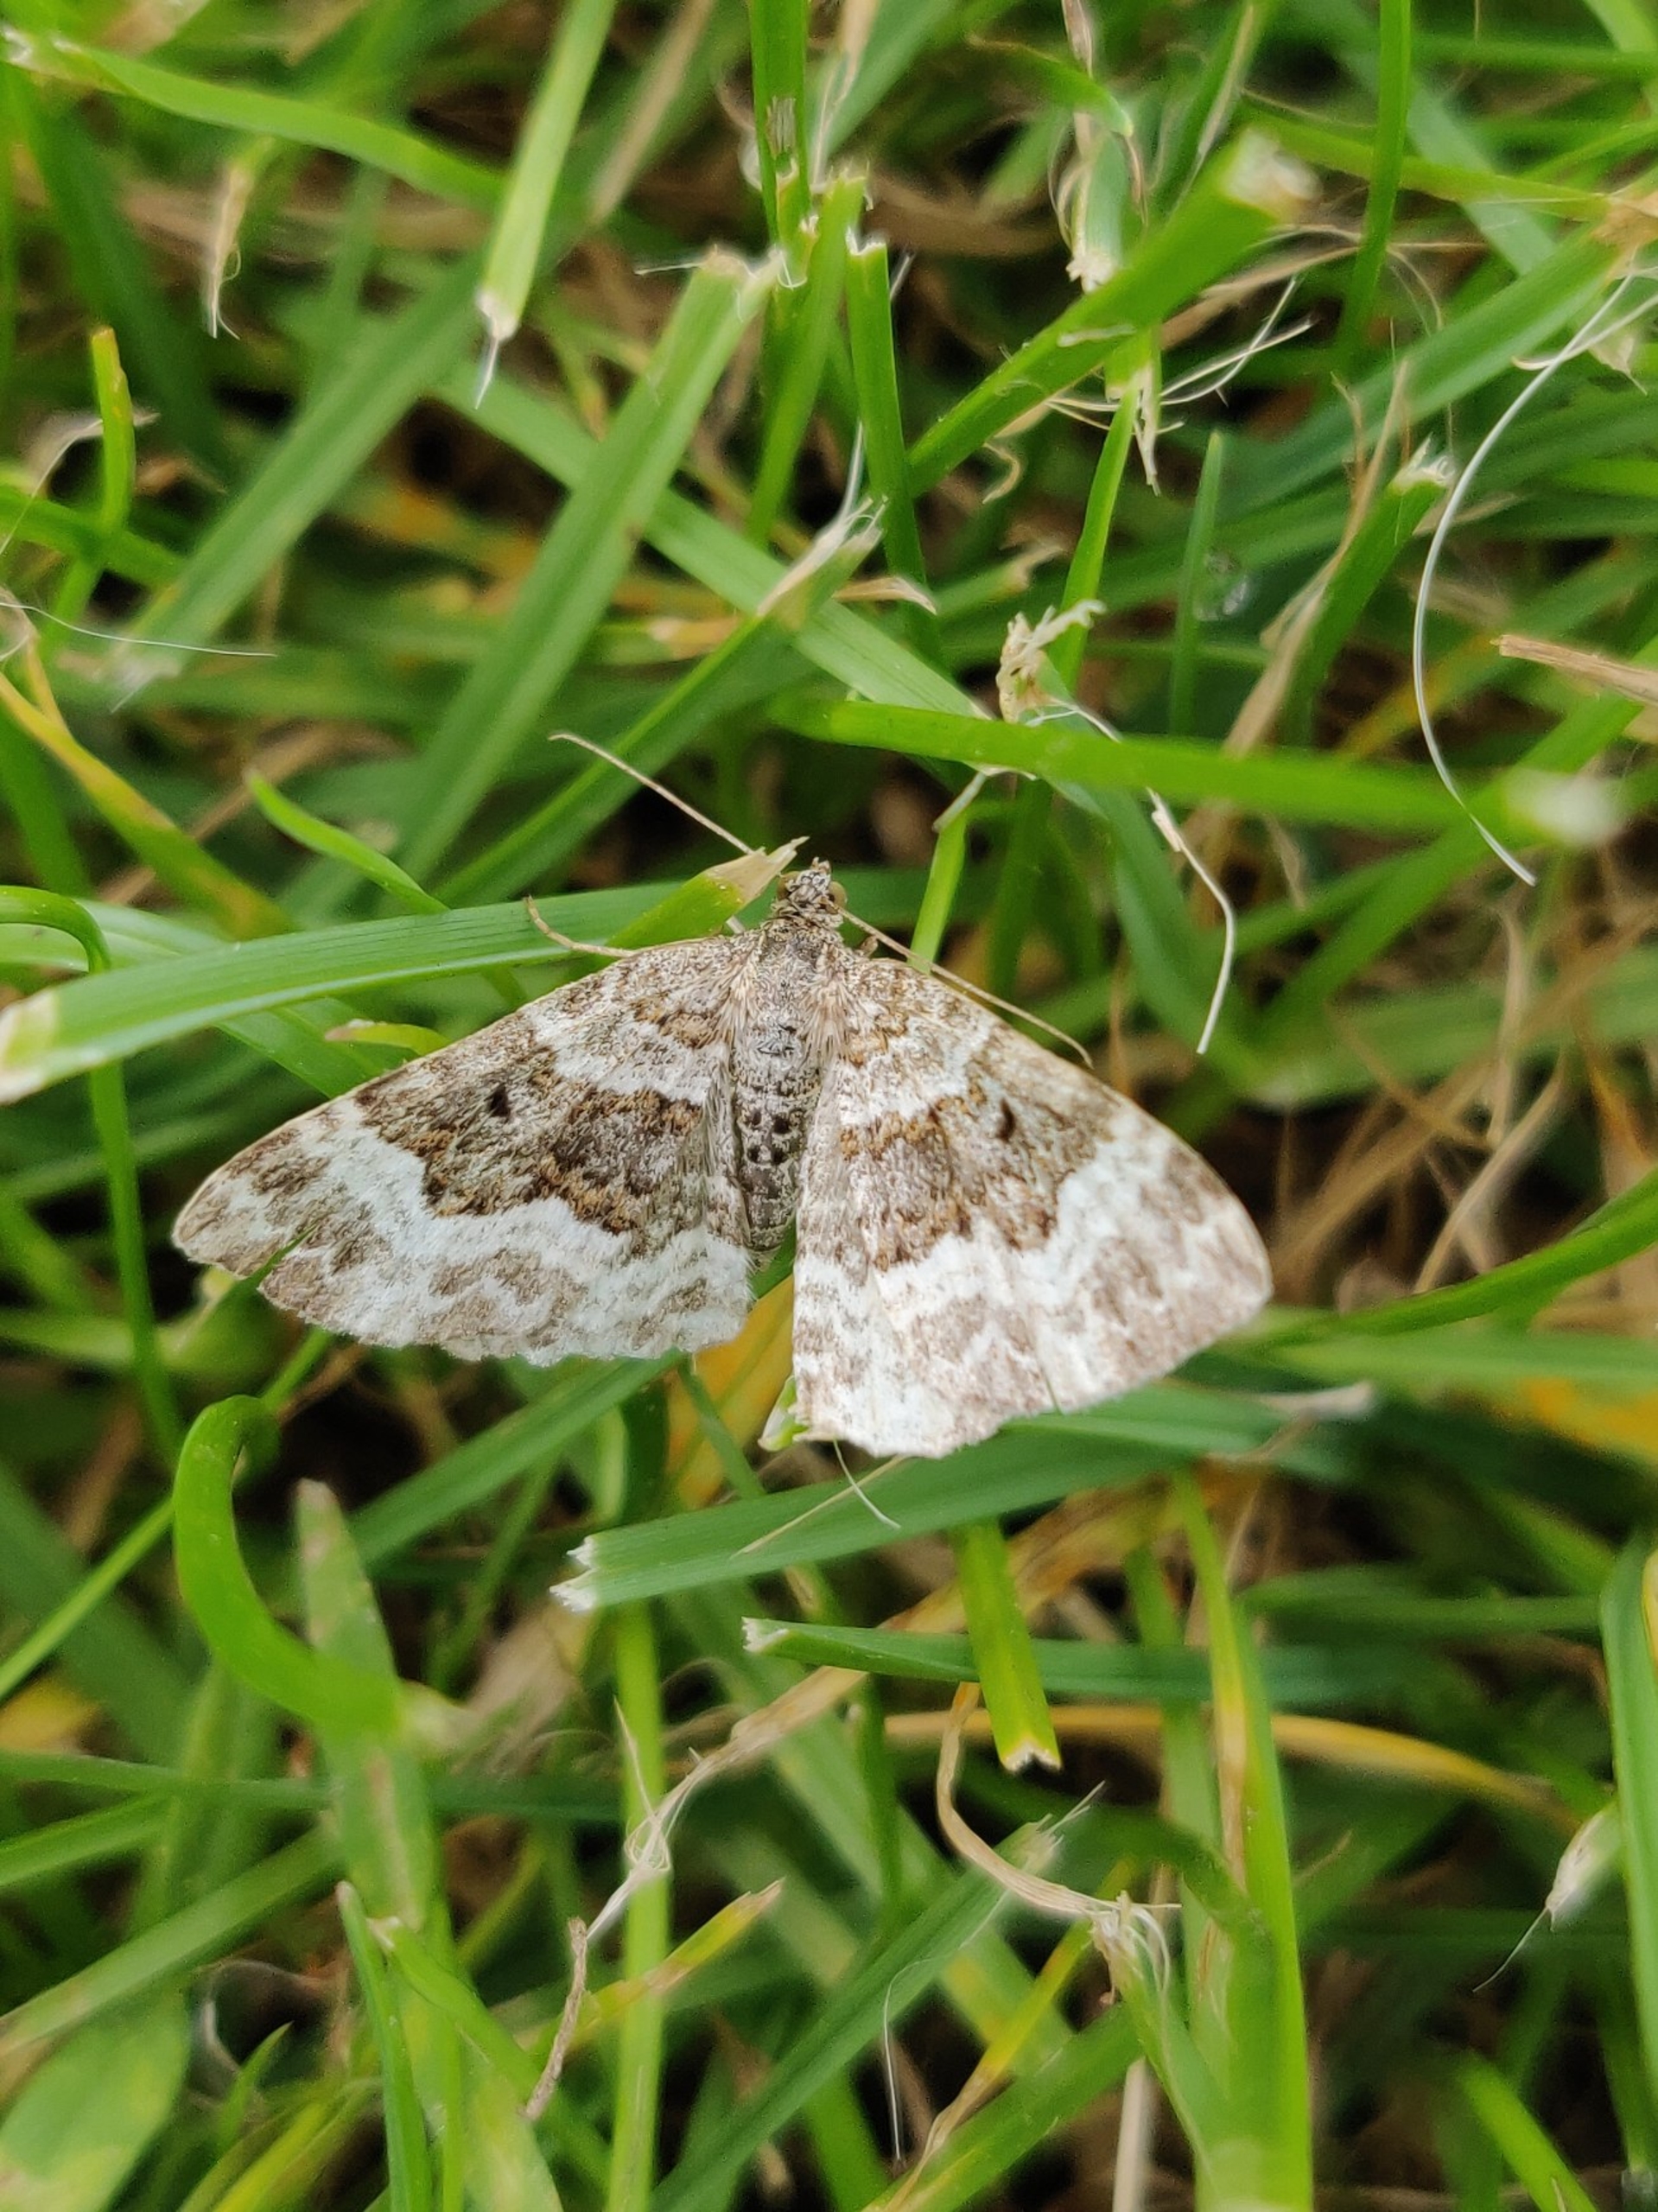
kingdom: Animalia
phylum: Arthropoda
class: Insecta
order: Lepidoptera
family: Geometridae
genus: Epirrhoe
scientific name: Epirrhoe alternata
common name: Almindelig bladmåler
